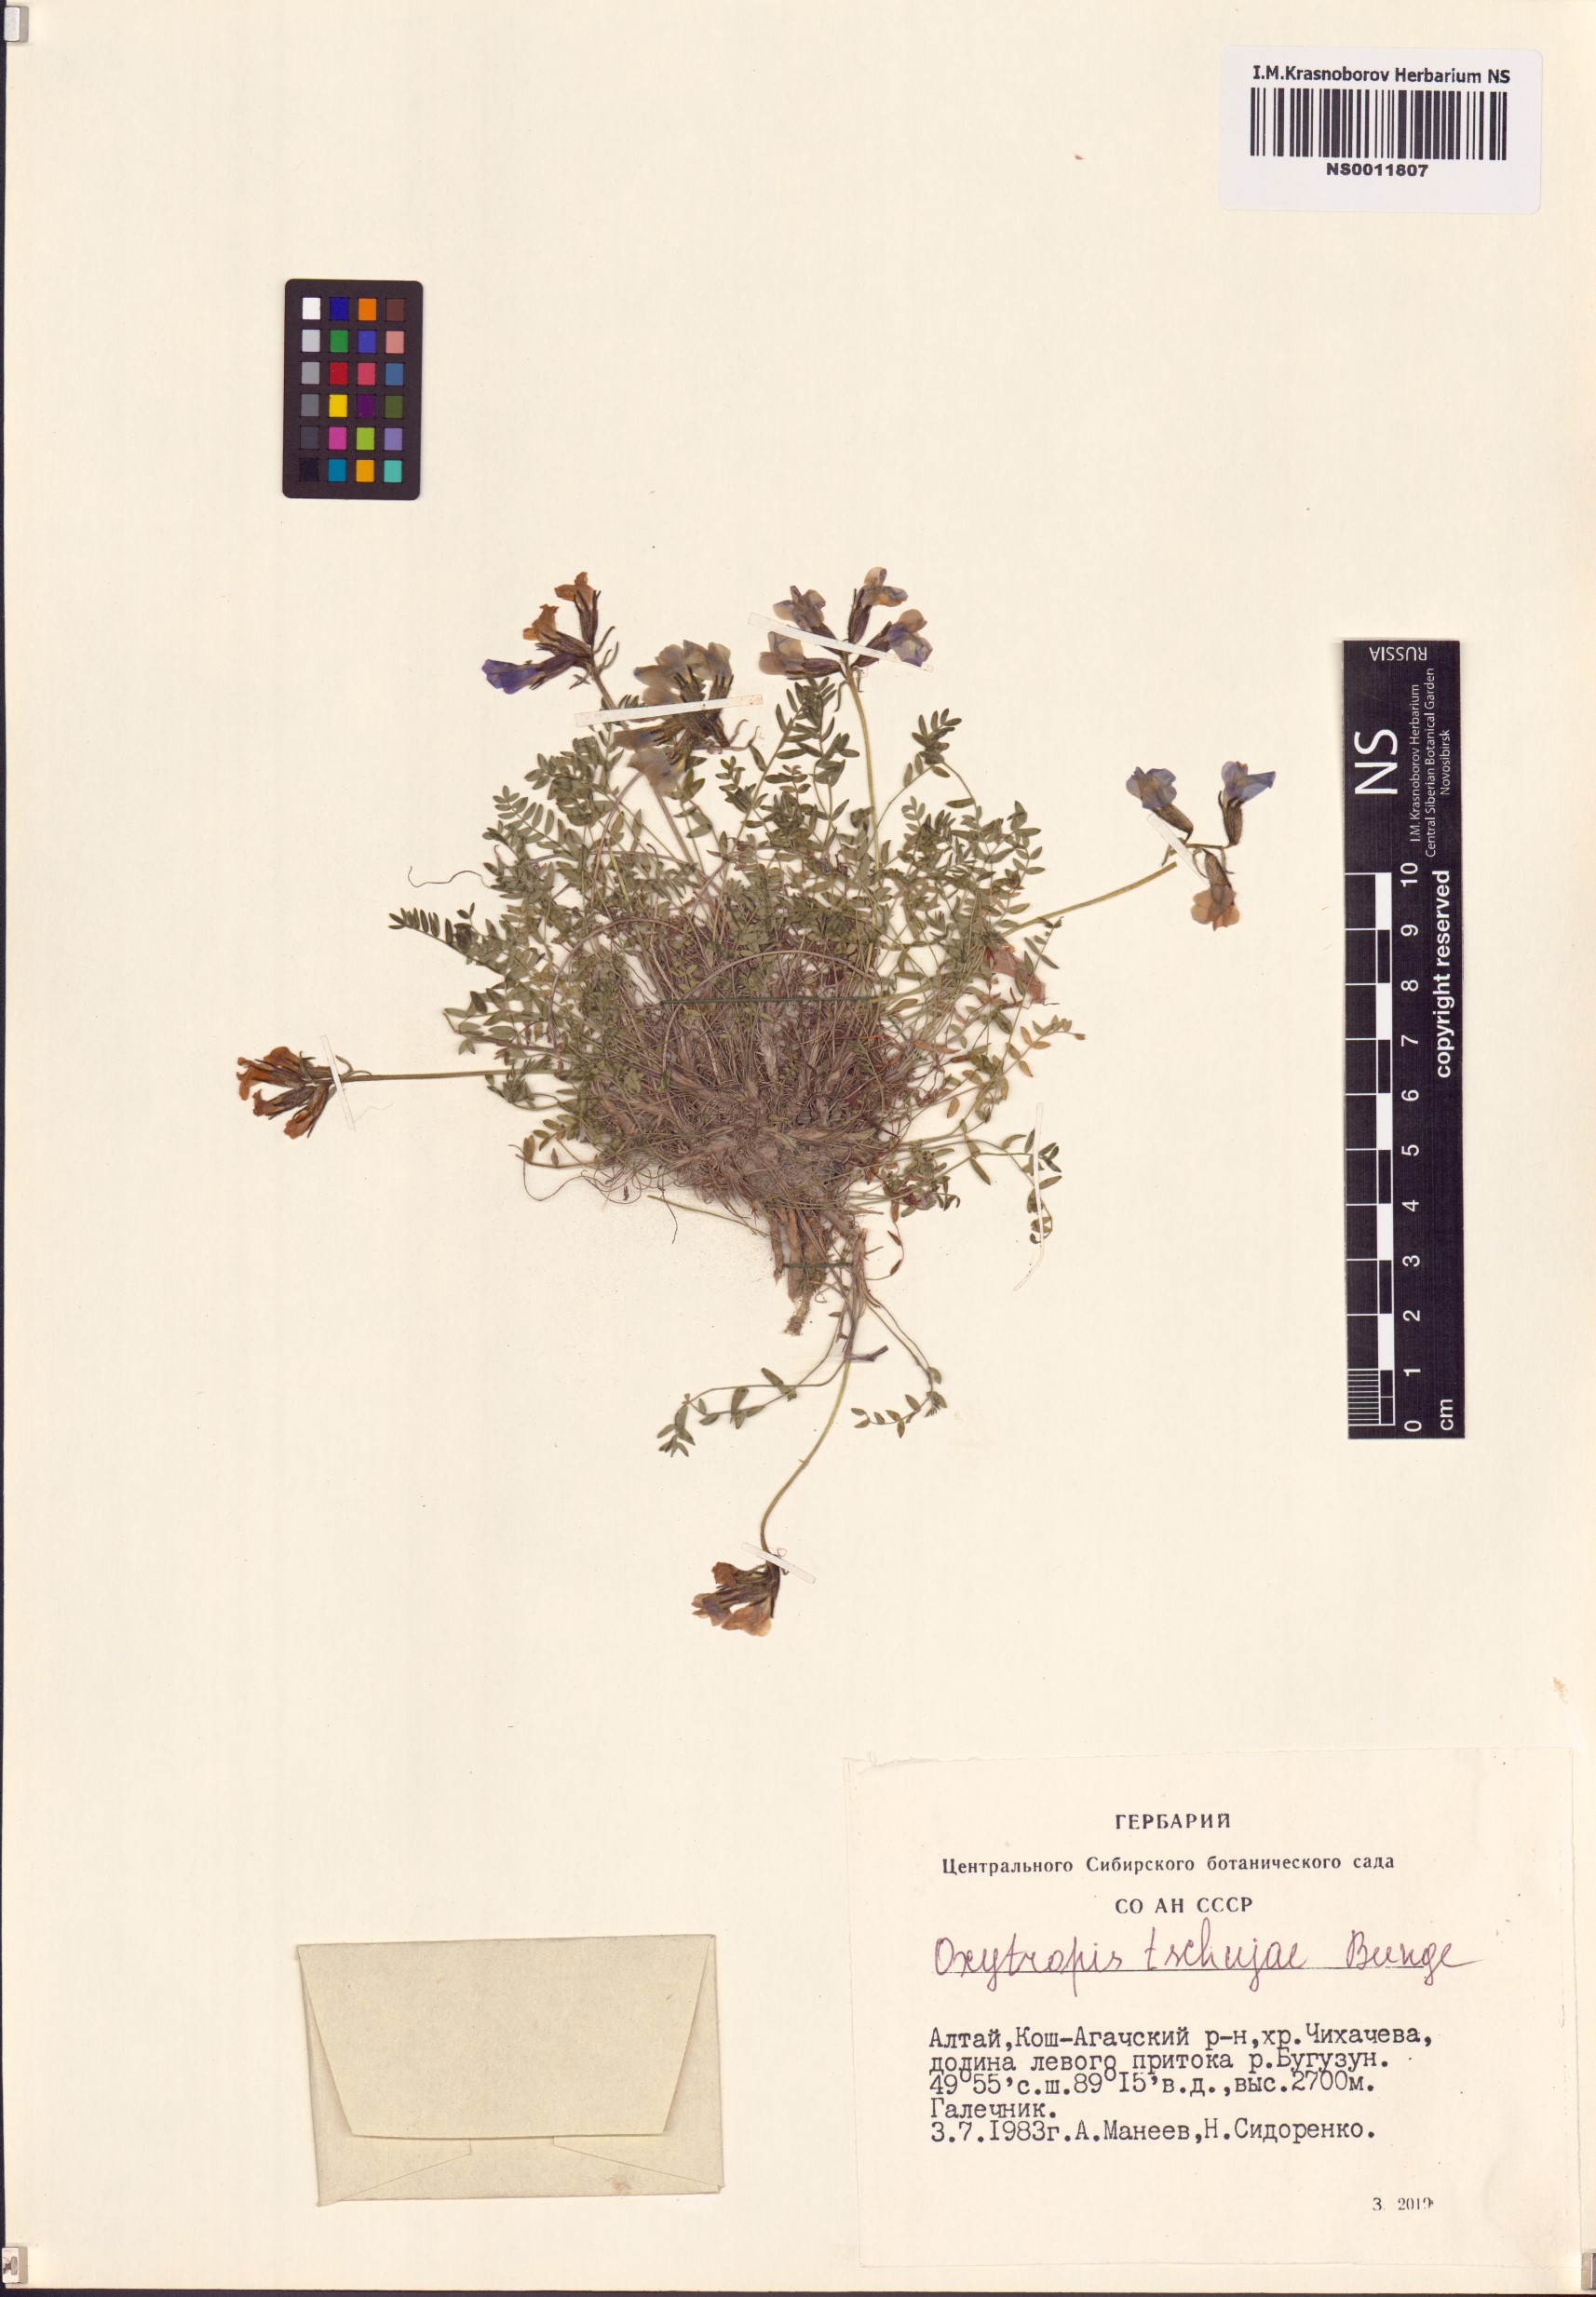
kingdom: Plantae
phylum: Tracheophyta
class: Magnoliopsida
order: Fabales
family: Fabaceae
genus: Oxytropis
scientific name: Oxytropis tschujae
